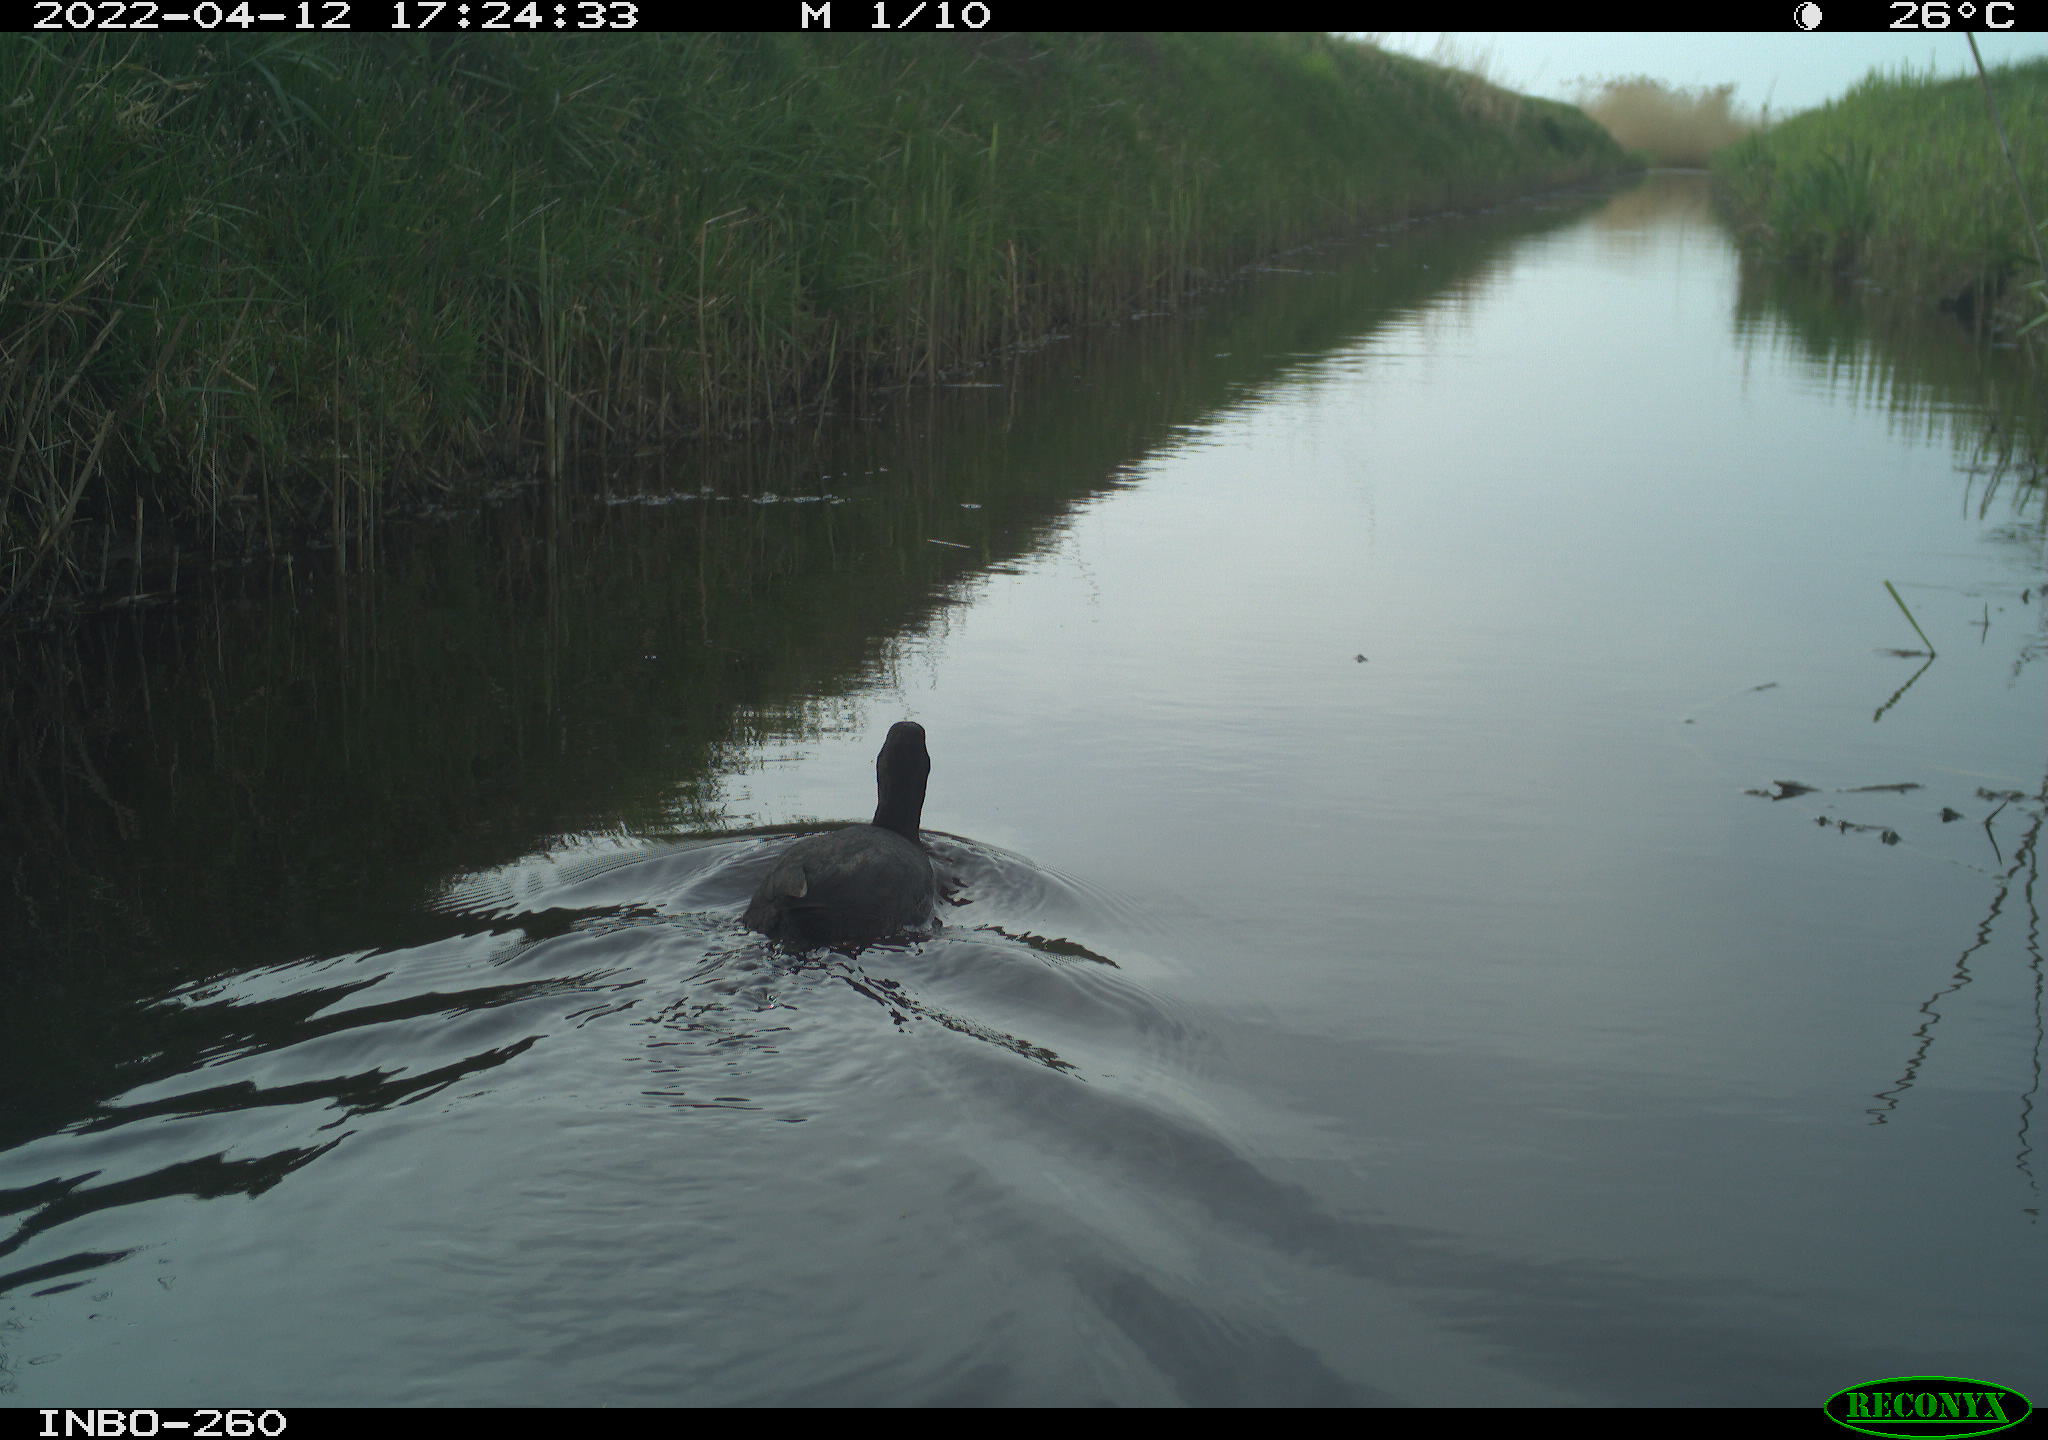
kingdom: Animalia
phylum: Chordata
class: Aves
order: Gruiformes
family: Rallidae
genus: Fulica
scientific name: Fulica atra
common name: Eurasian coot
